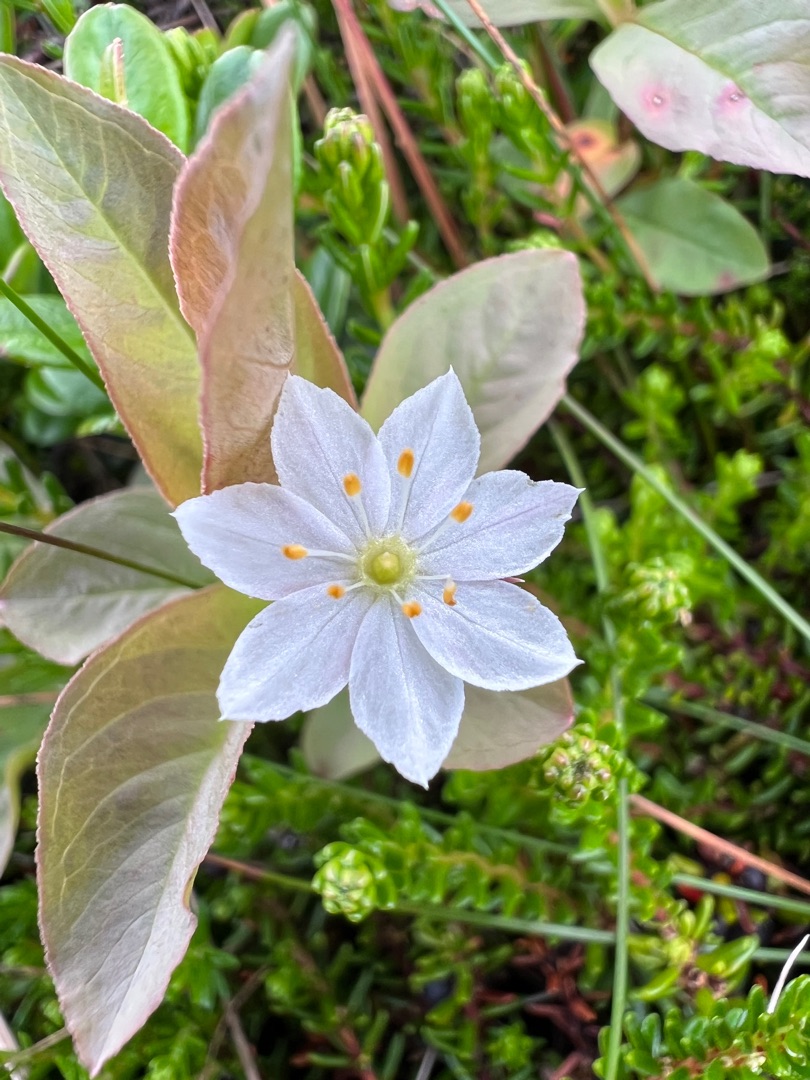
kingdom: Plantae
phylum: Tracheophyta
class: Magnoliopsida
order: Ericales
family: Primulaceae
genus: Lysimachia
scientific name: Lysimachia europaea
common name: Skovstjerne
